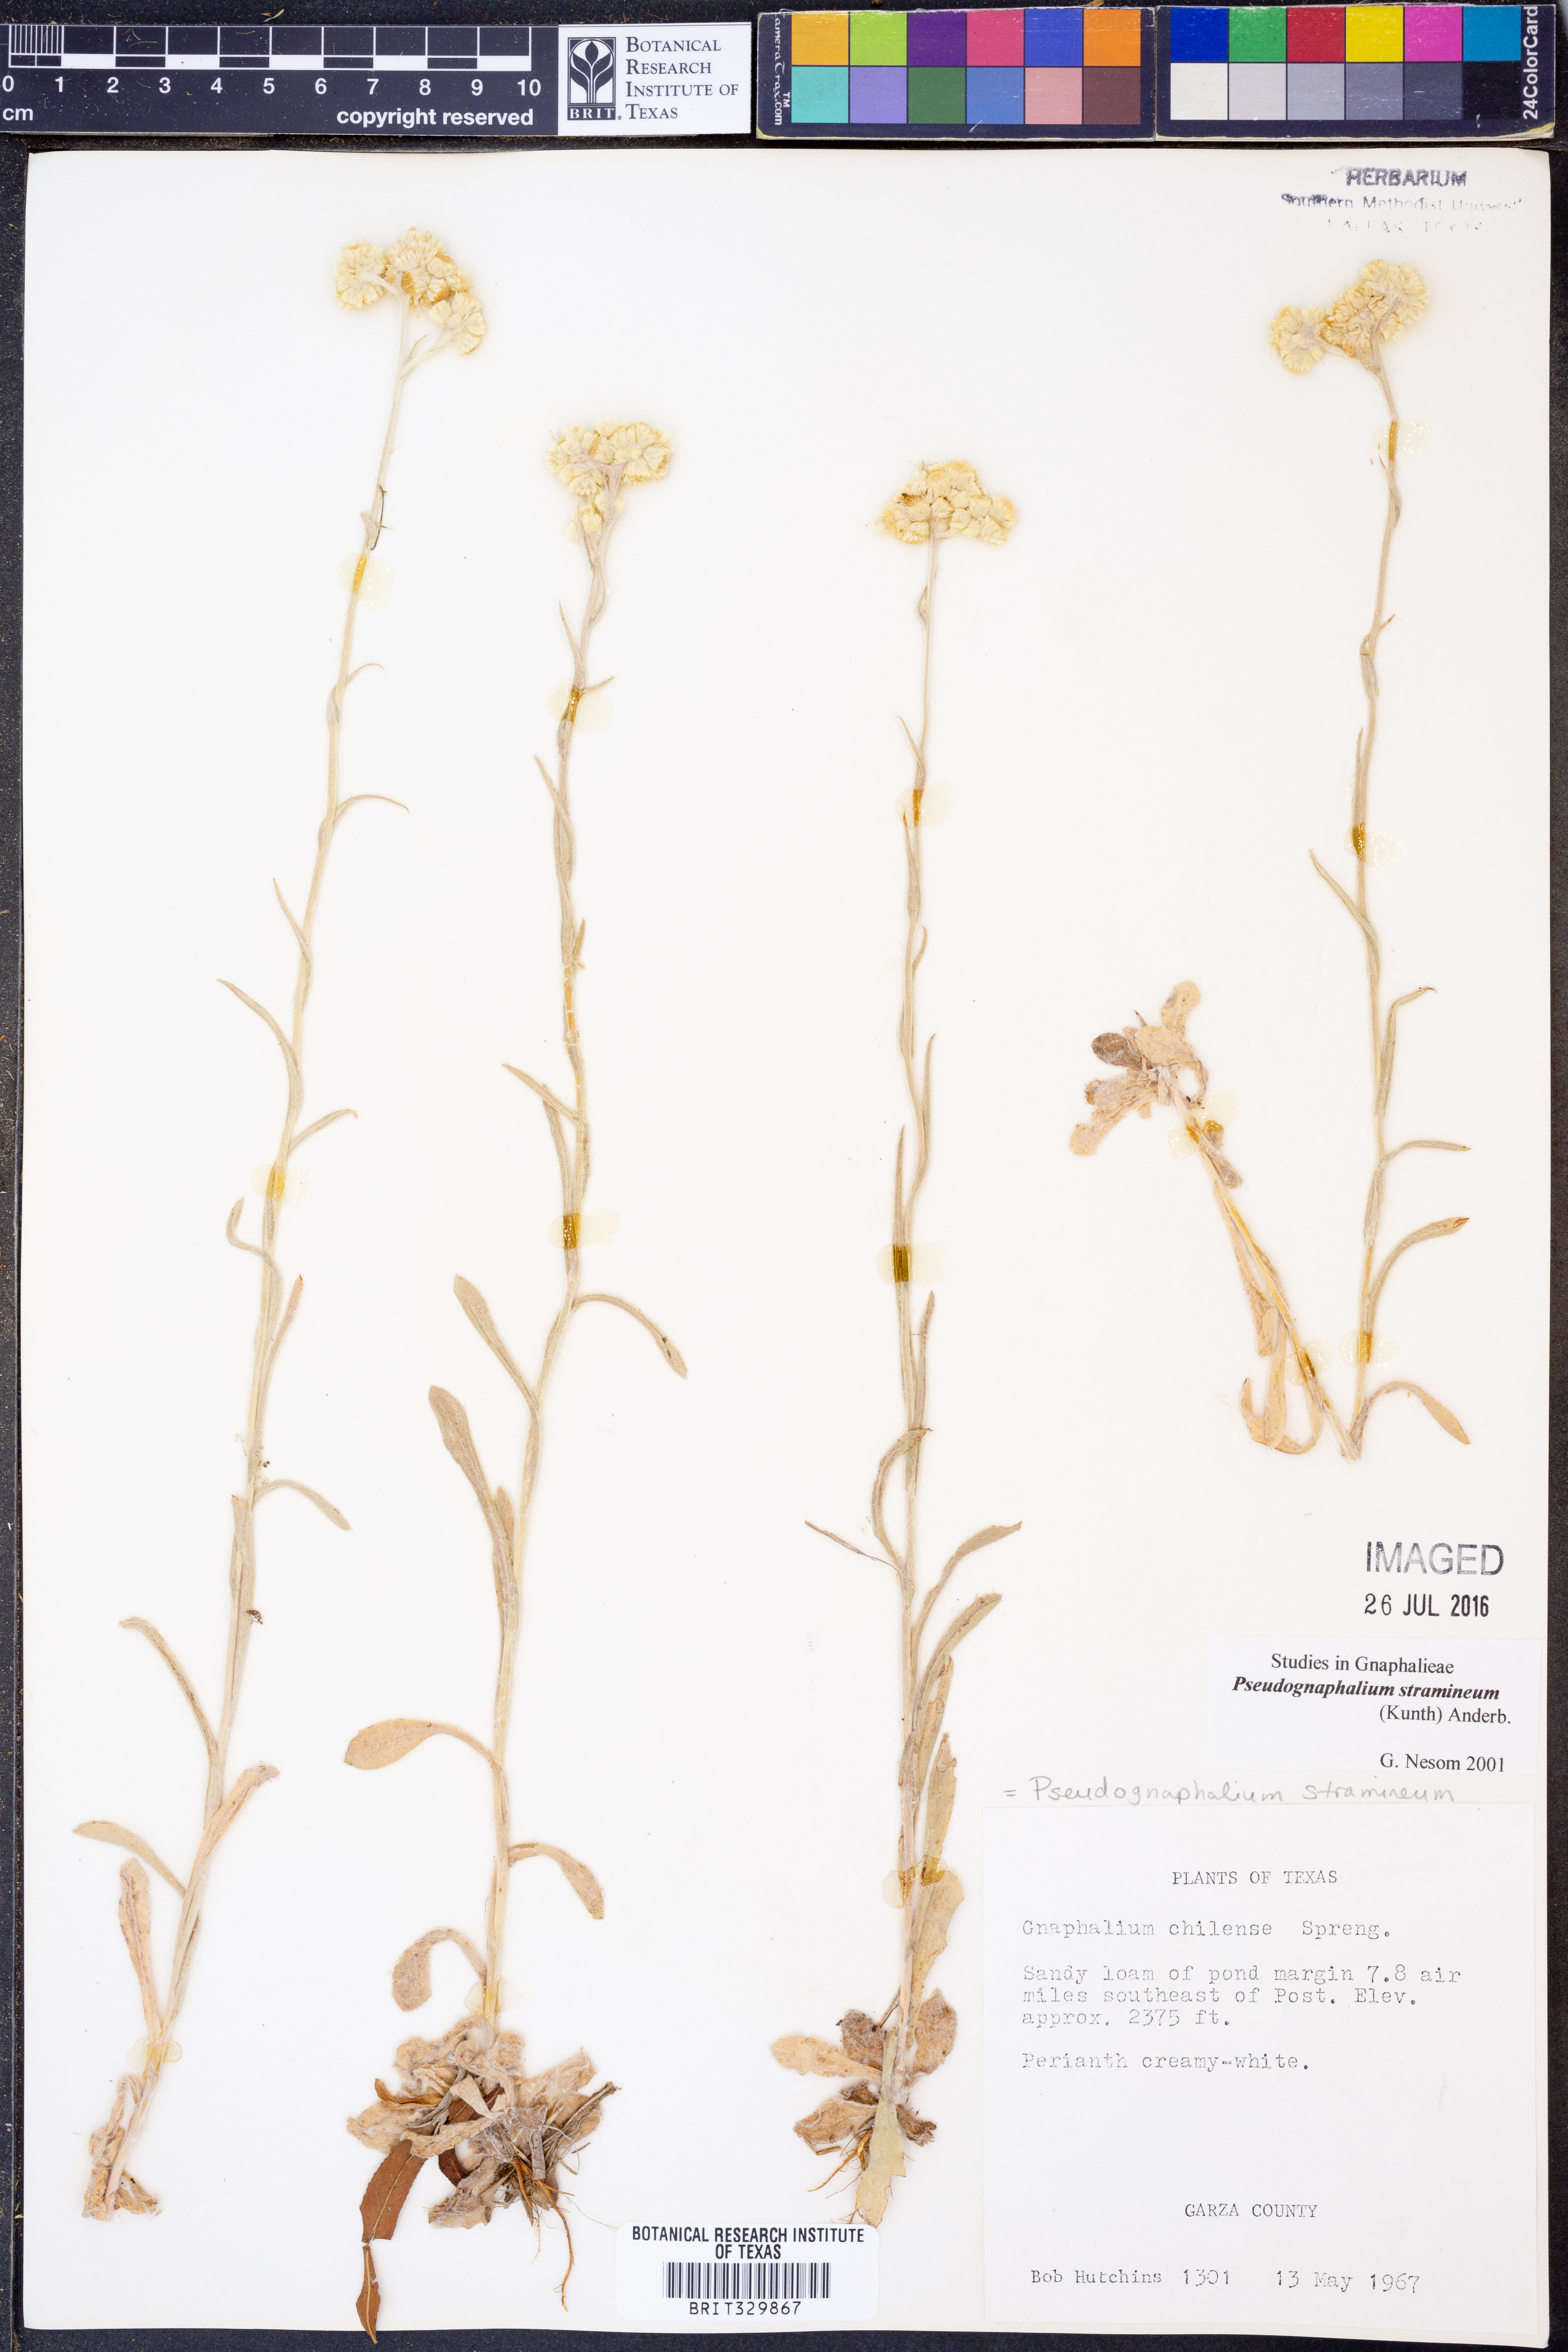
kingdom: Plantae
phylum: Tracheophyta
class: Magnoliopsida
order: Asterales
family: Asteraceae
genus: Pseudognaphalium
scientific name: Pseudognaphalium stramineum
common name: Cotton-batting-plant
